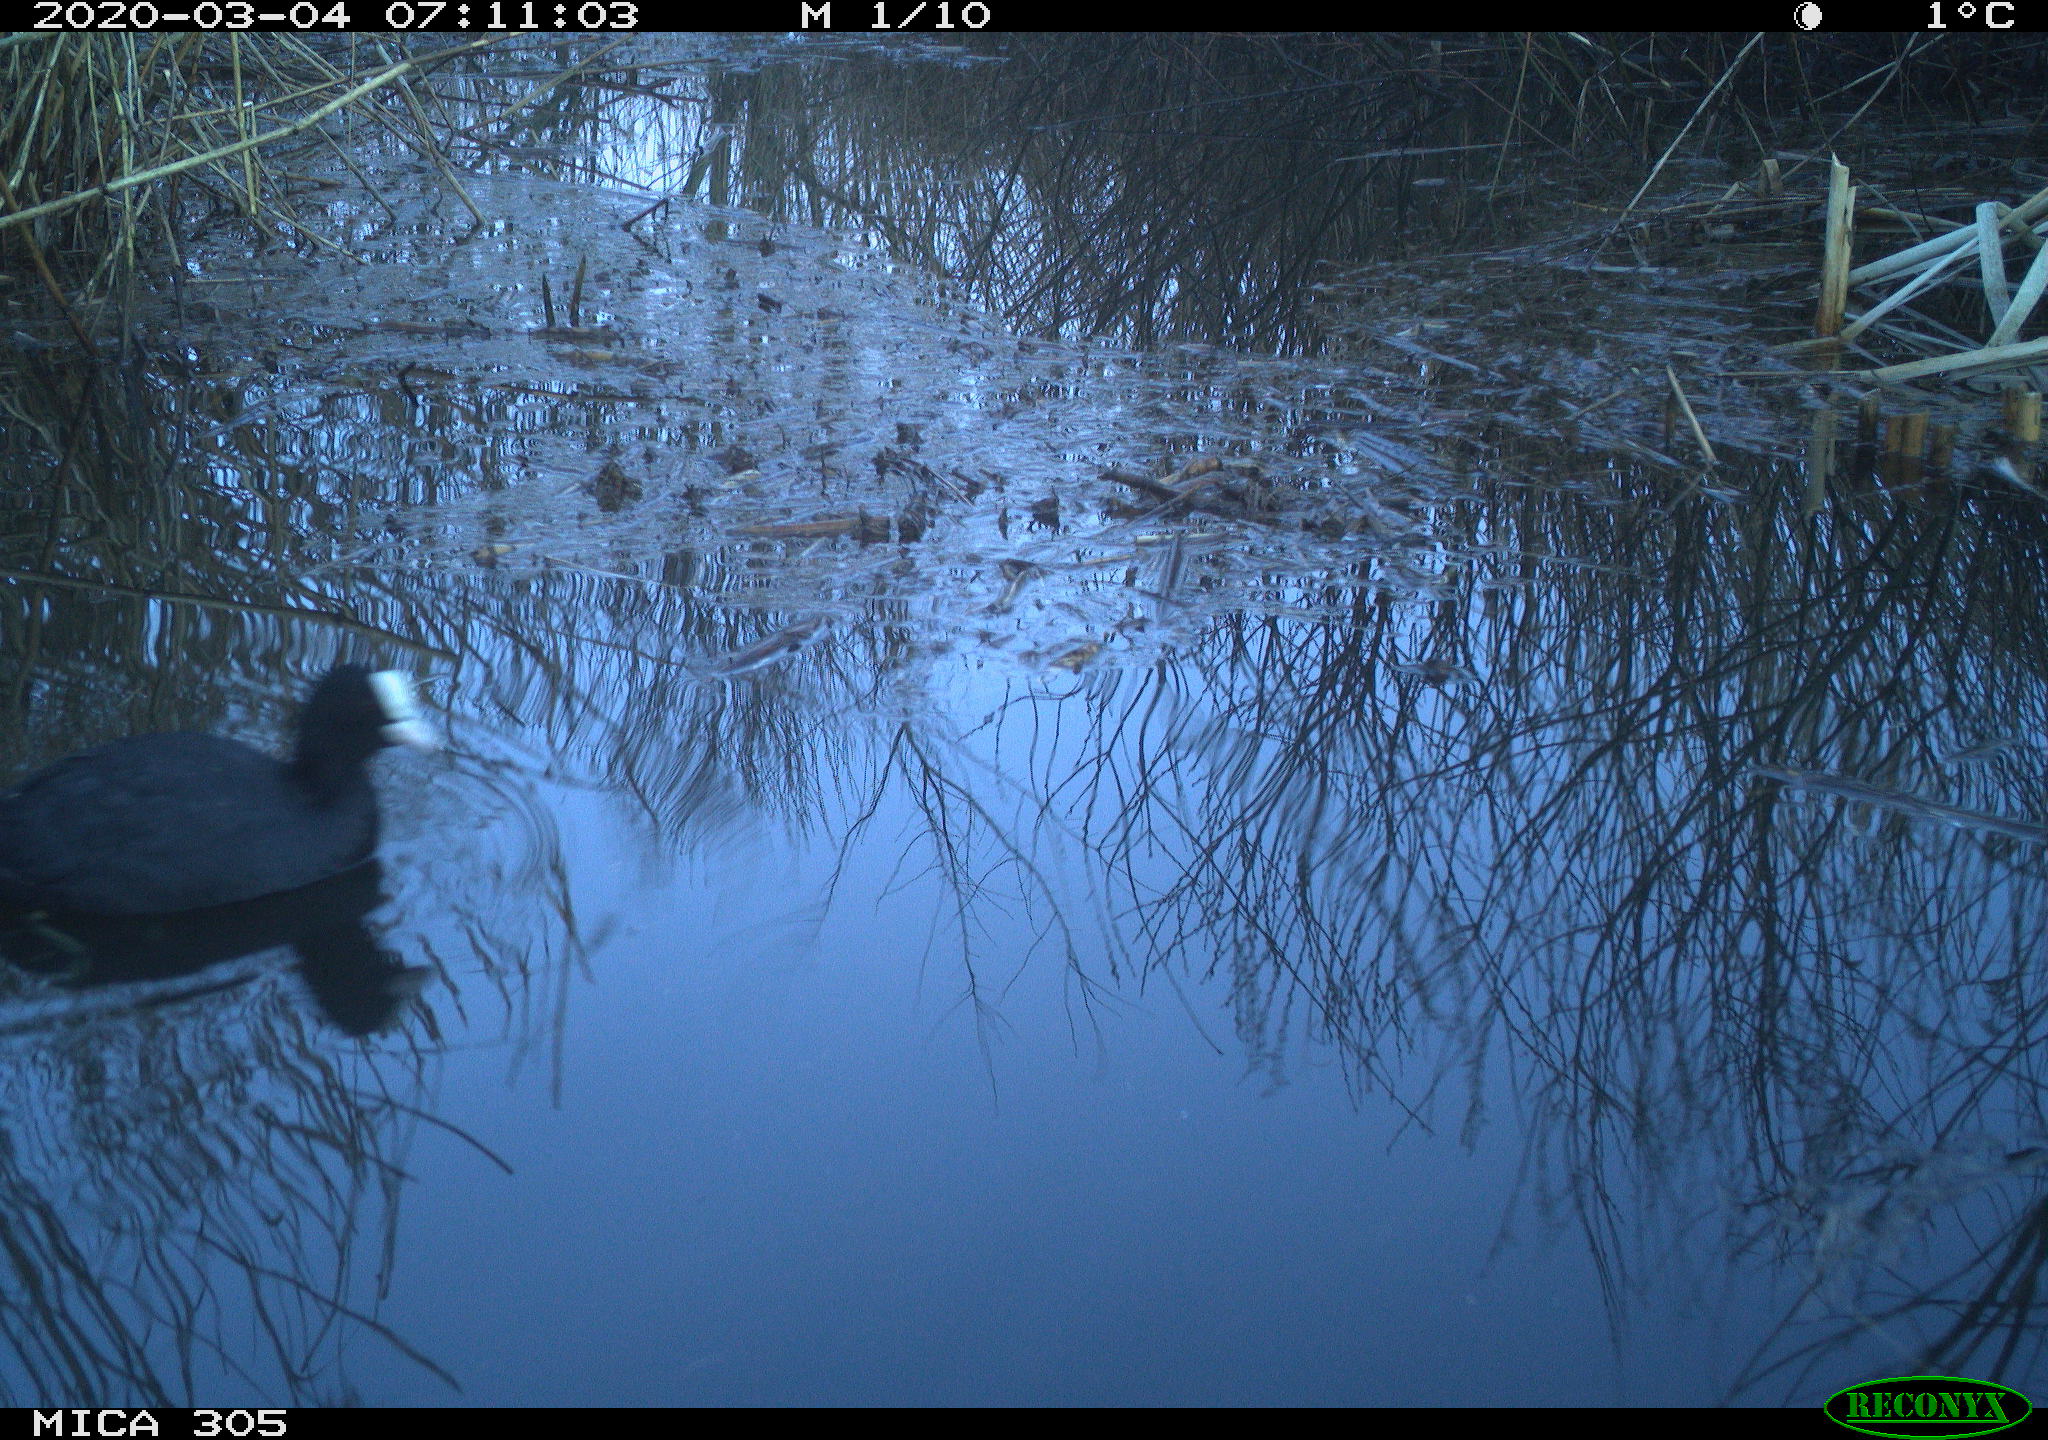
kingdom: Animalia
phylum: Chordata
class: Aves
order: Gruiformes
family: Rallidae
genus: Fulica
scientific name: Fulica atra
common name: Eurasian coot
